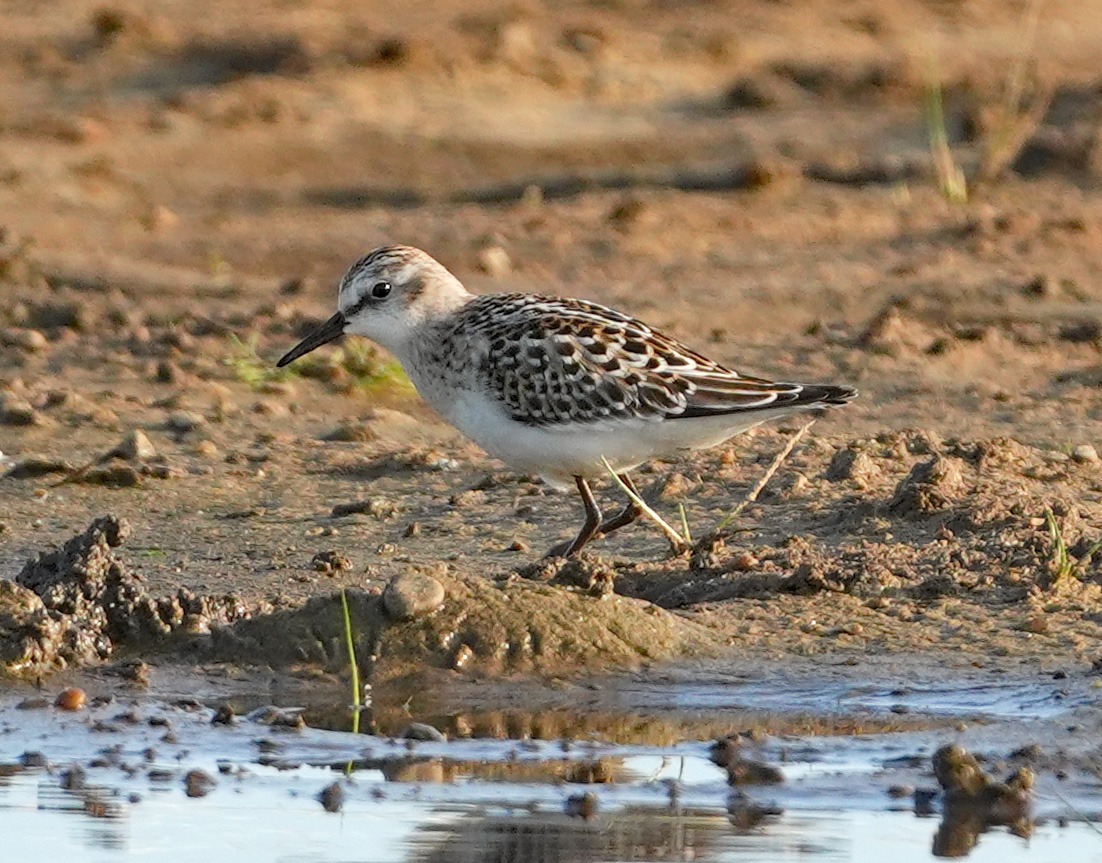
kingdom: Animalia
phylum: Chordata
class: Aves
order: Charadriiformes
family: Scolopacidae
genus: Calidris
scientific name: Calidris minuta
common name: Dværgryle
